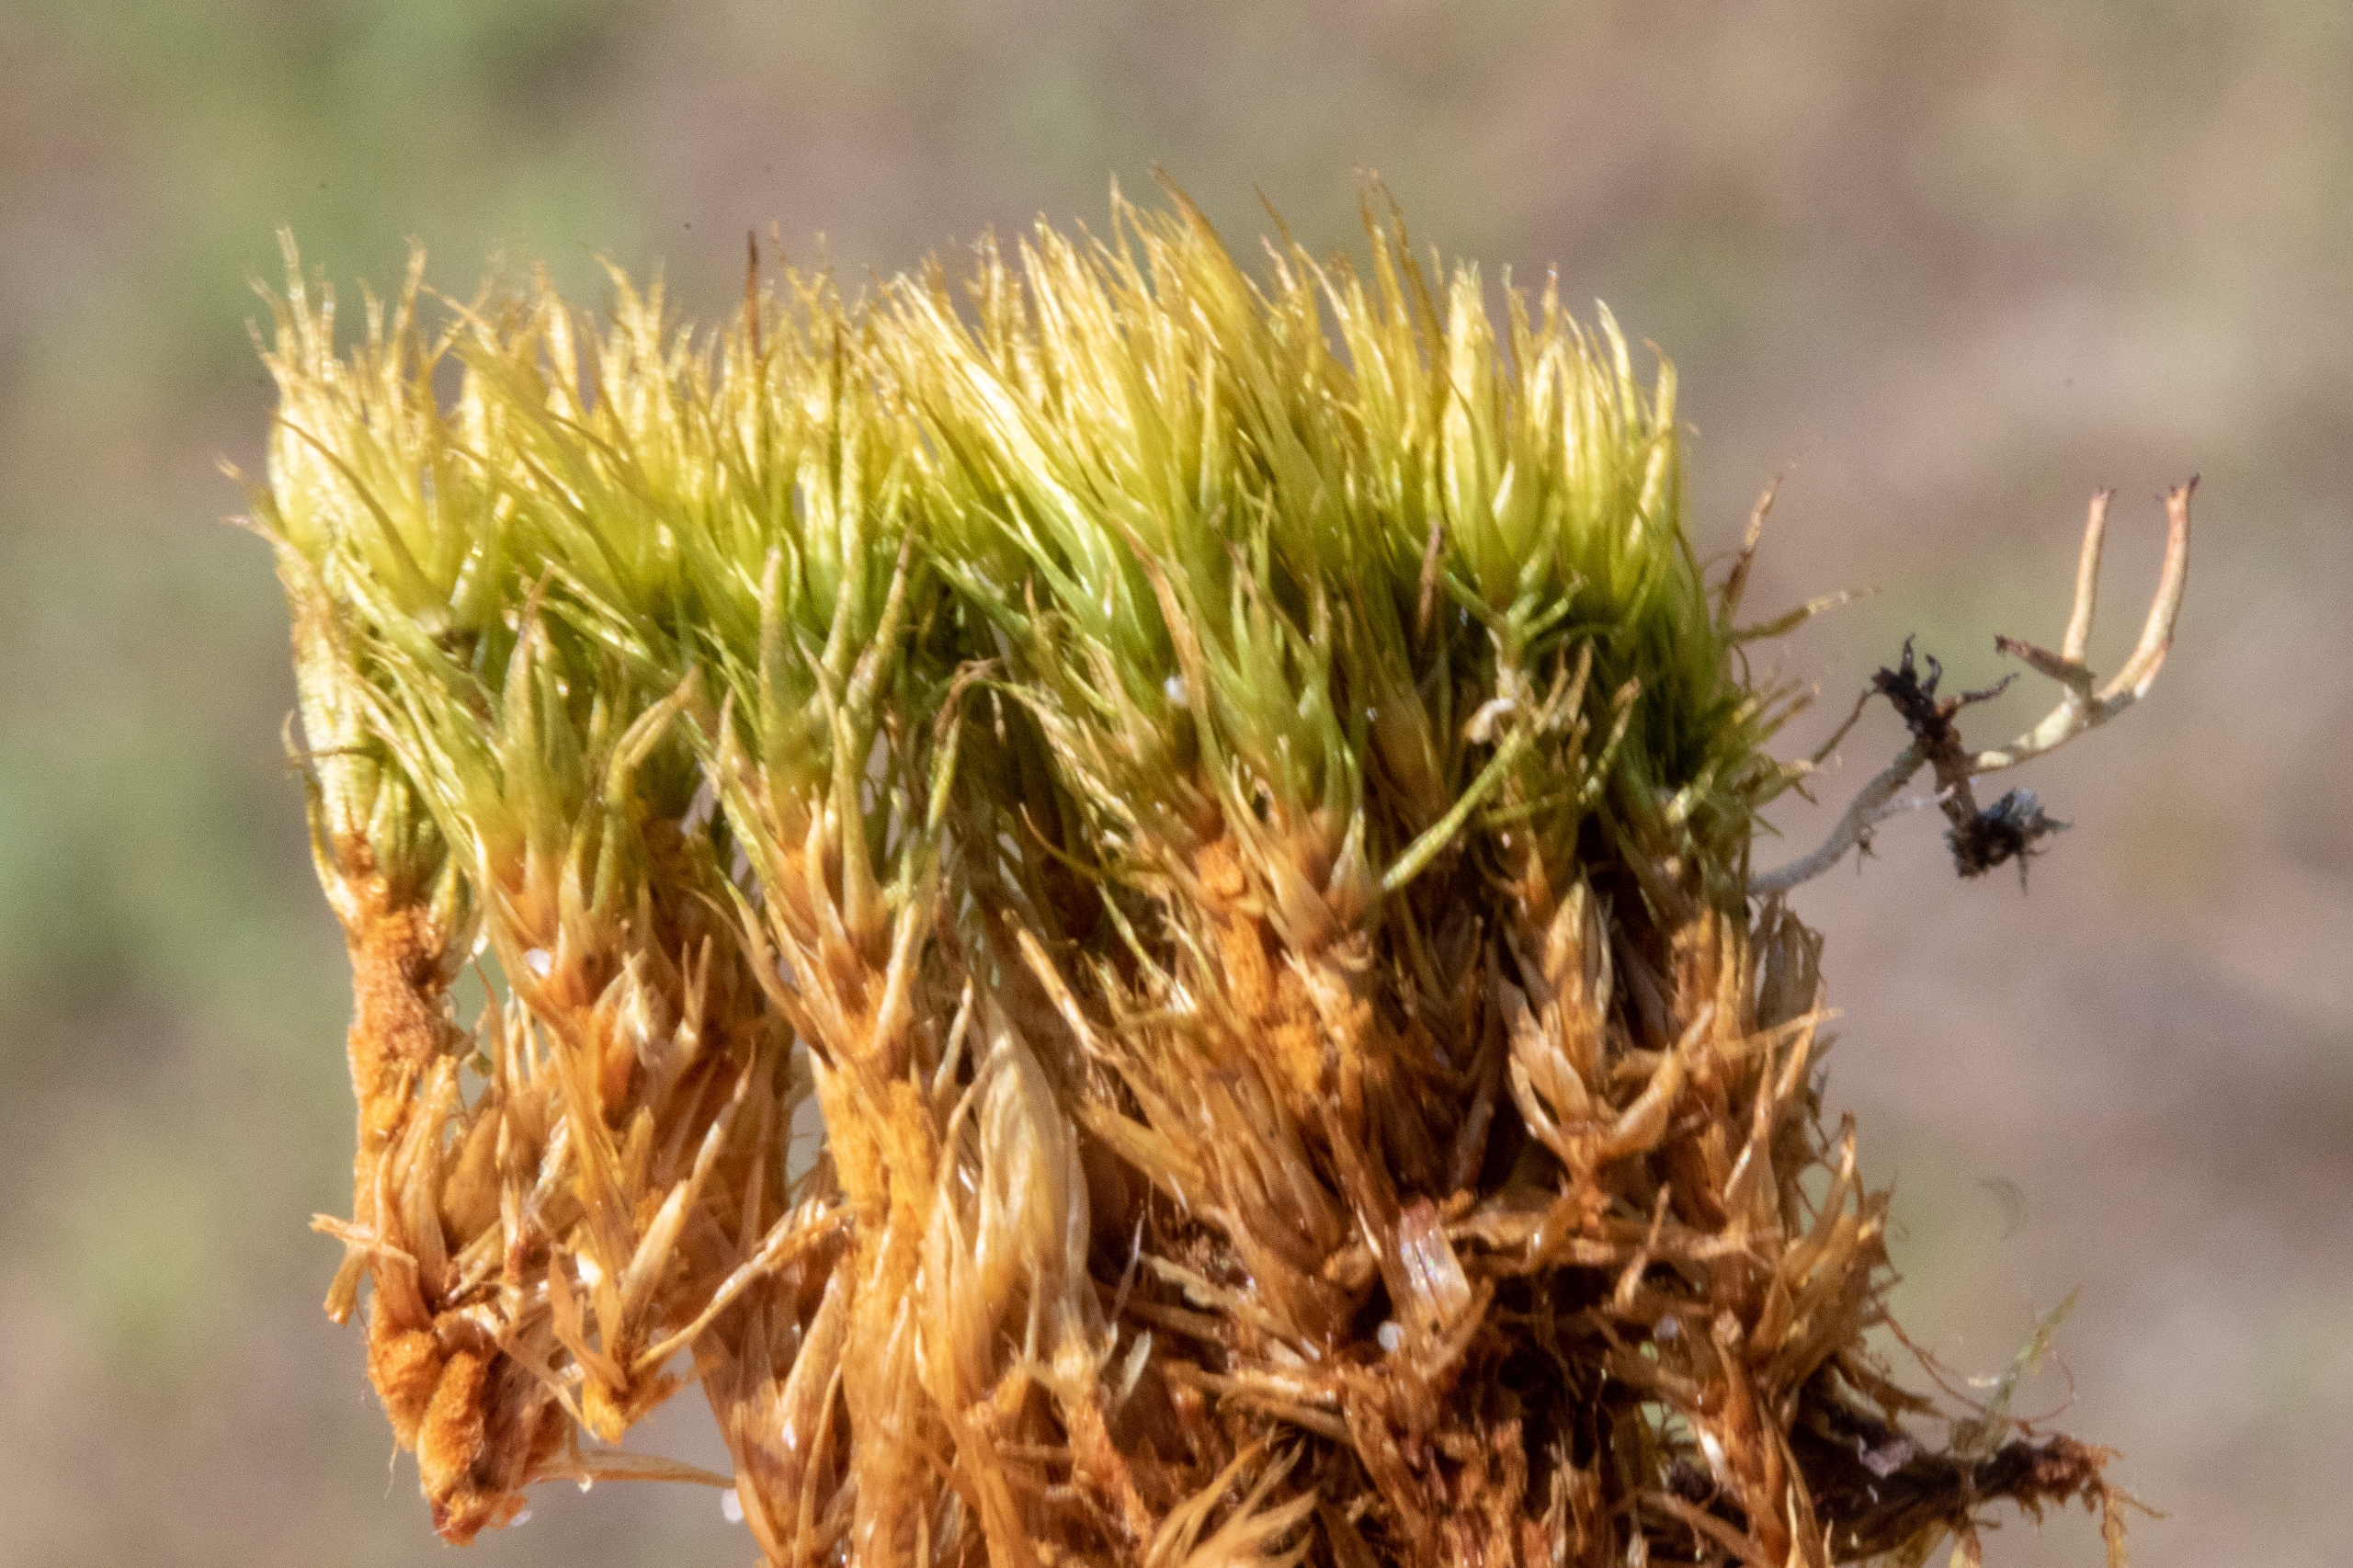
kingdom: Plantae
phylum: Bryophyta
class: Bryopsida
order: Dicranales
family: Dicranaceae
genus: Dicranum
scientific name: Dicranum
